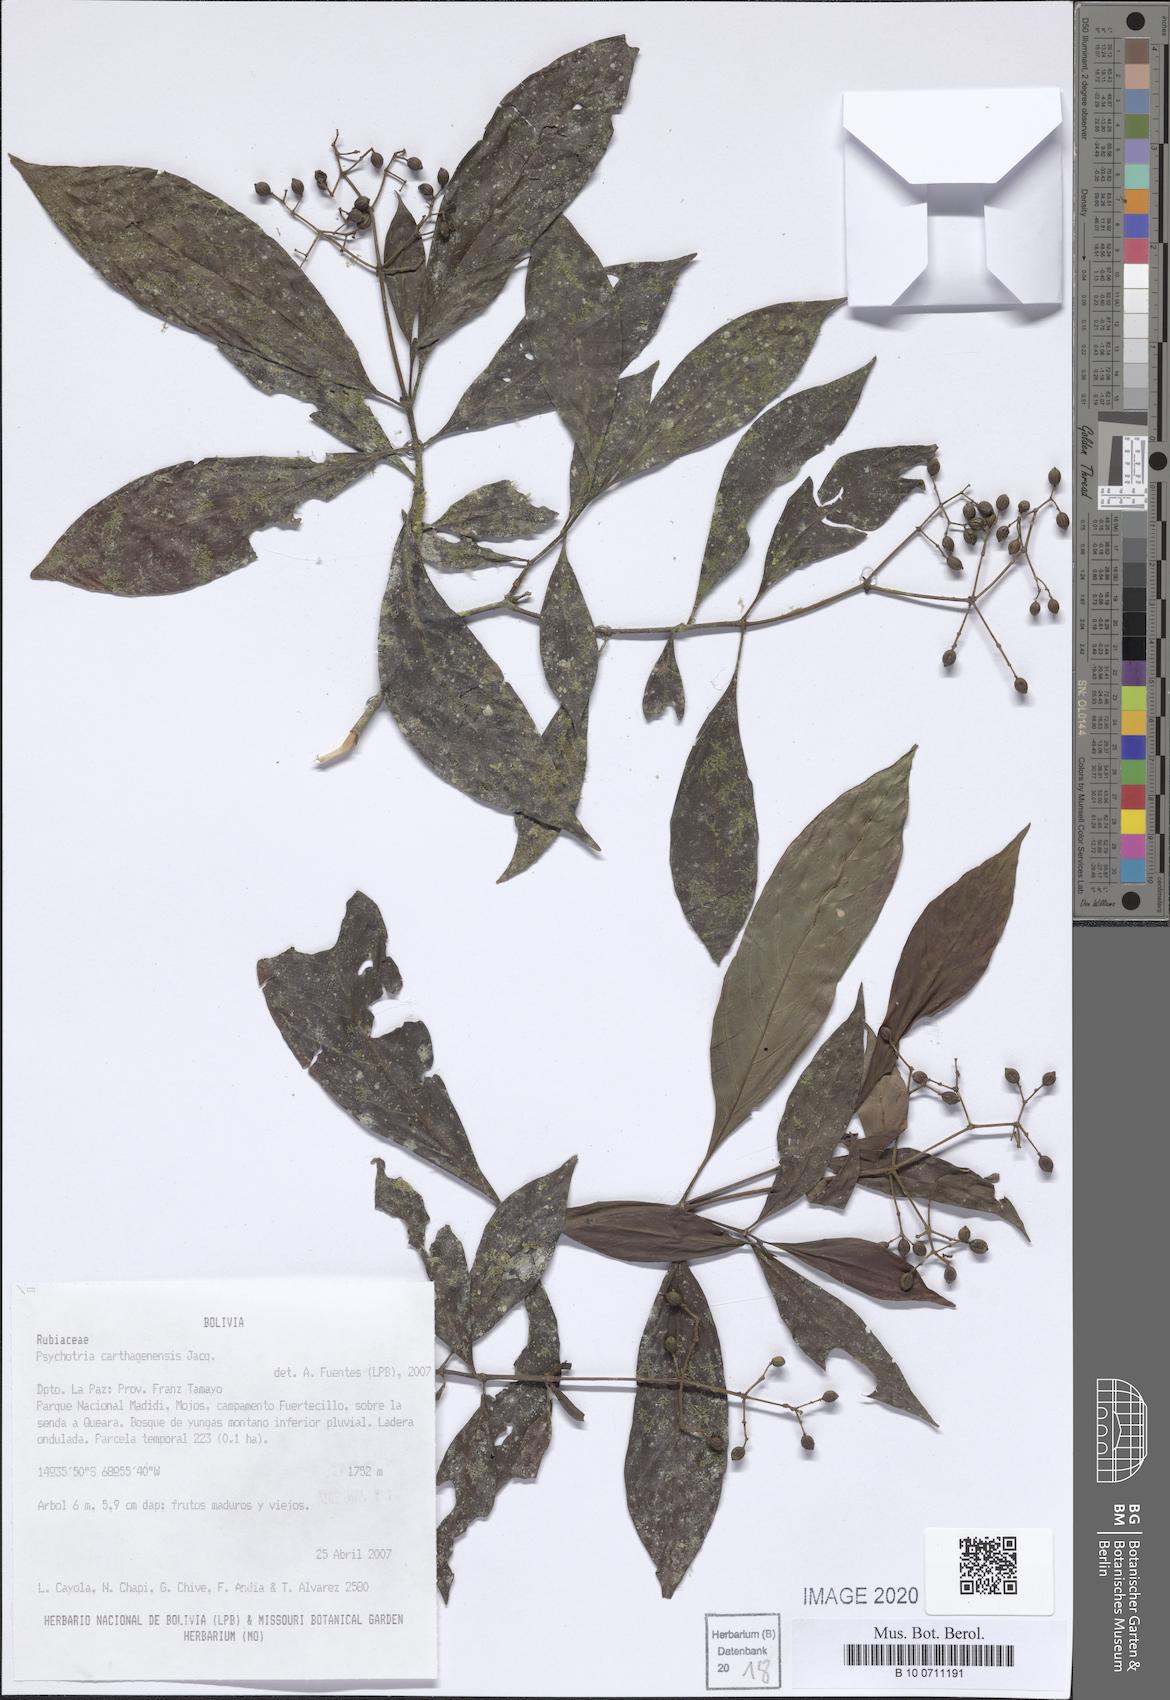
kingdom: Plantae
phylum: Tracheophyta
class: Magnoliopsida
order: Gentianales
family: Rubiaceae
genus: Psychotria
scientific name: Psychotria carthagenensis
